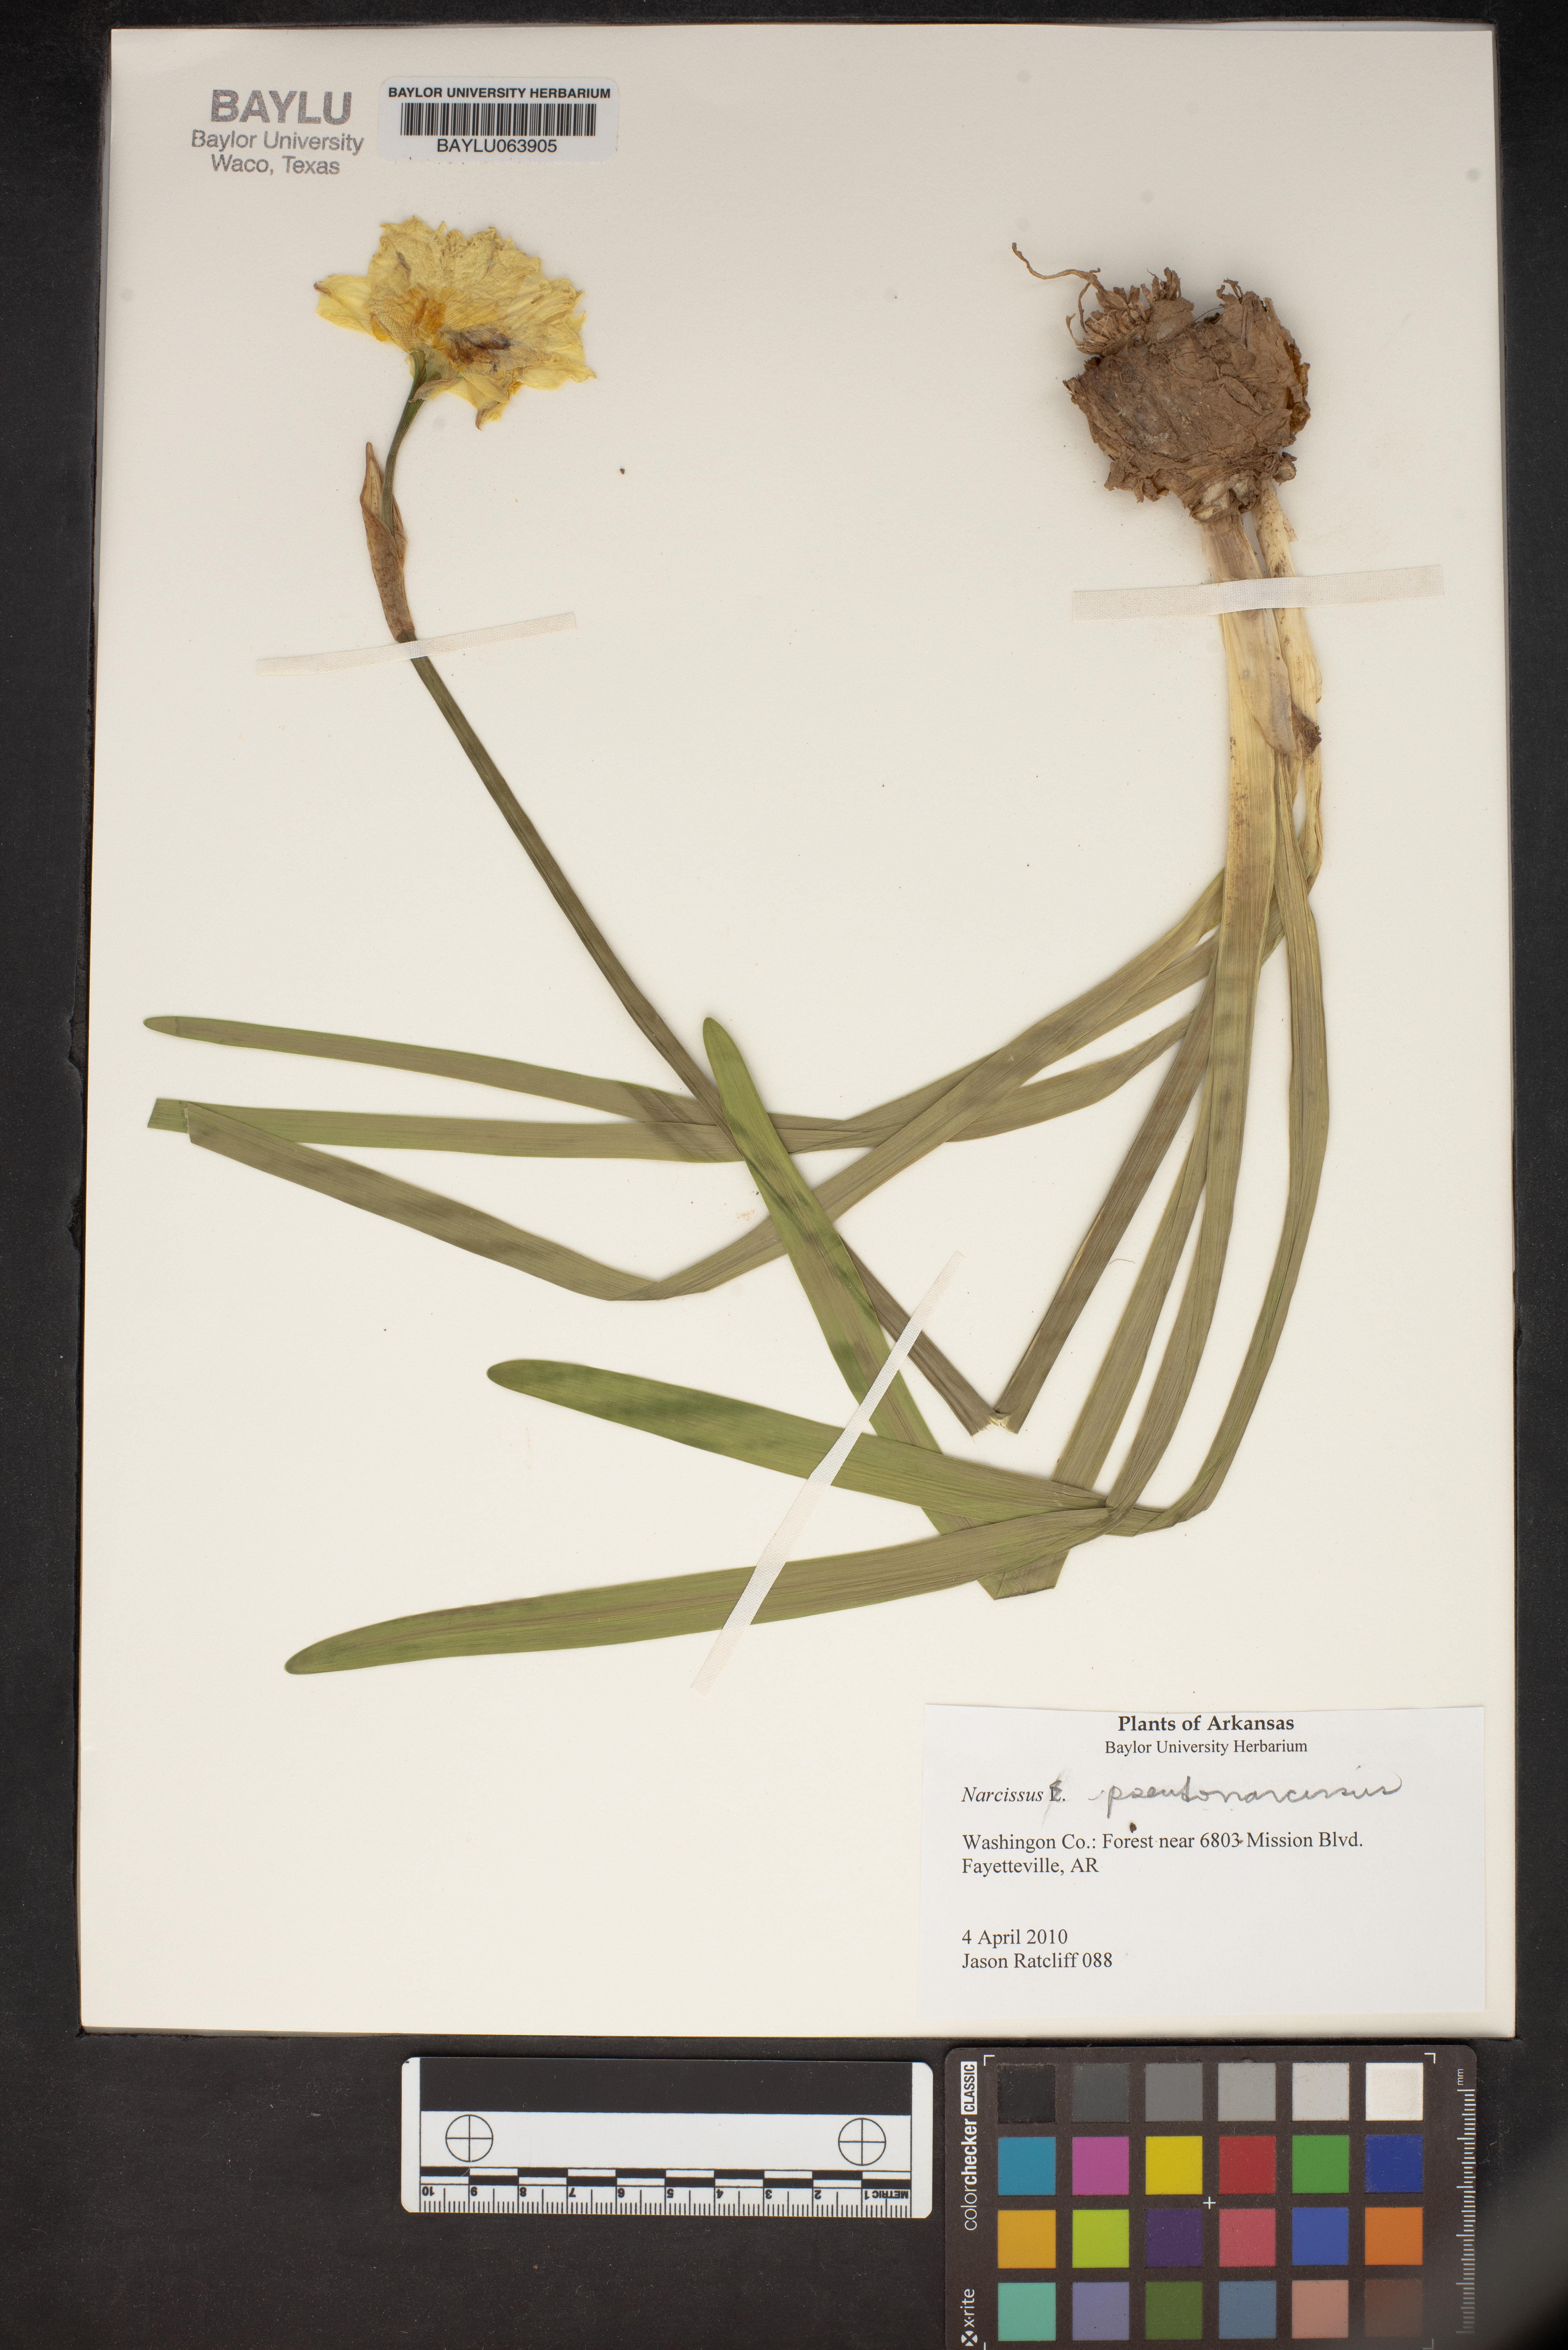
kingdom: Plantae
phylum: Tracheophyta
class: Liliopsida
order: Asparagales
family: Amaryllidaceae
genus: Narcissus
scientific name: Narcissus pseudonarcissus
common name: Daffodil
